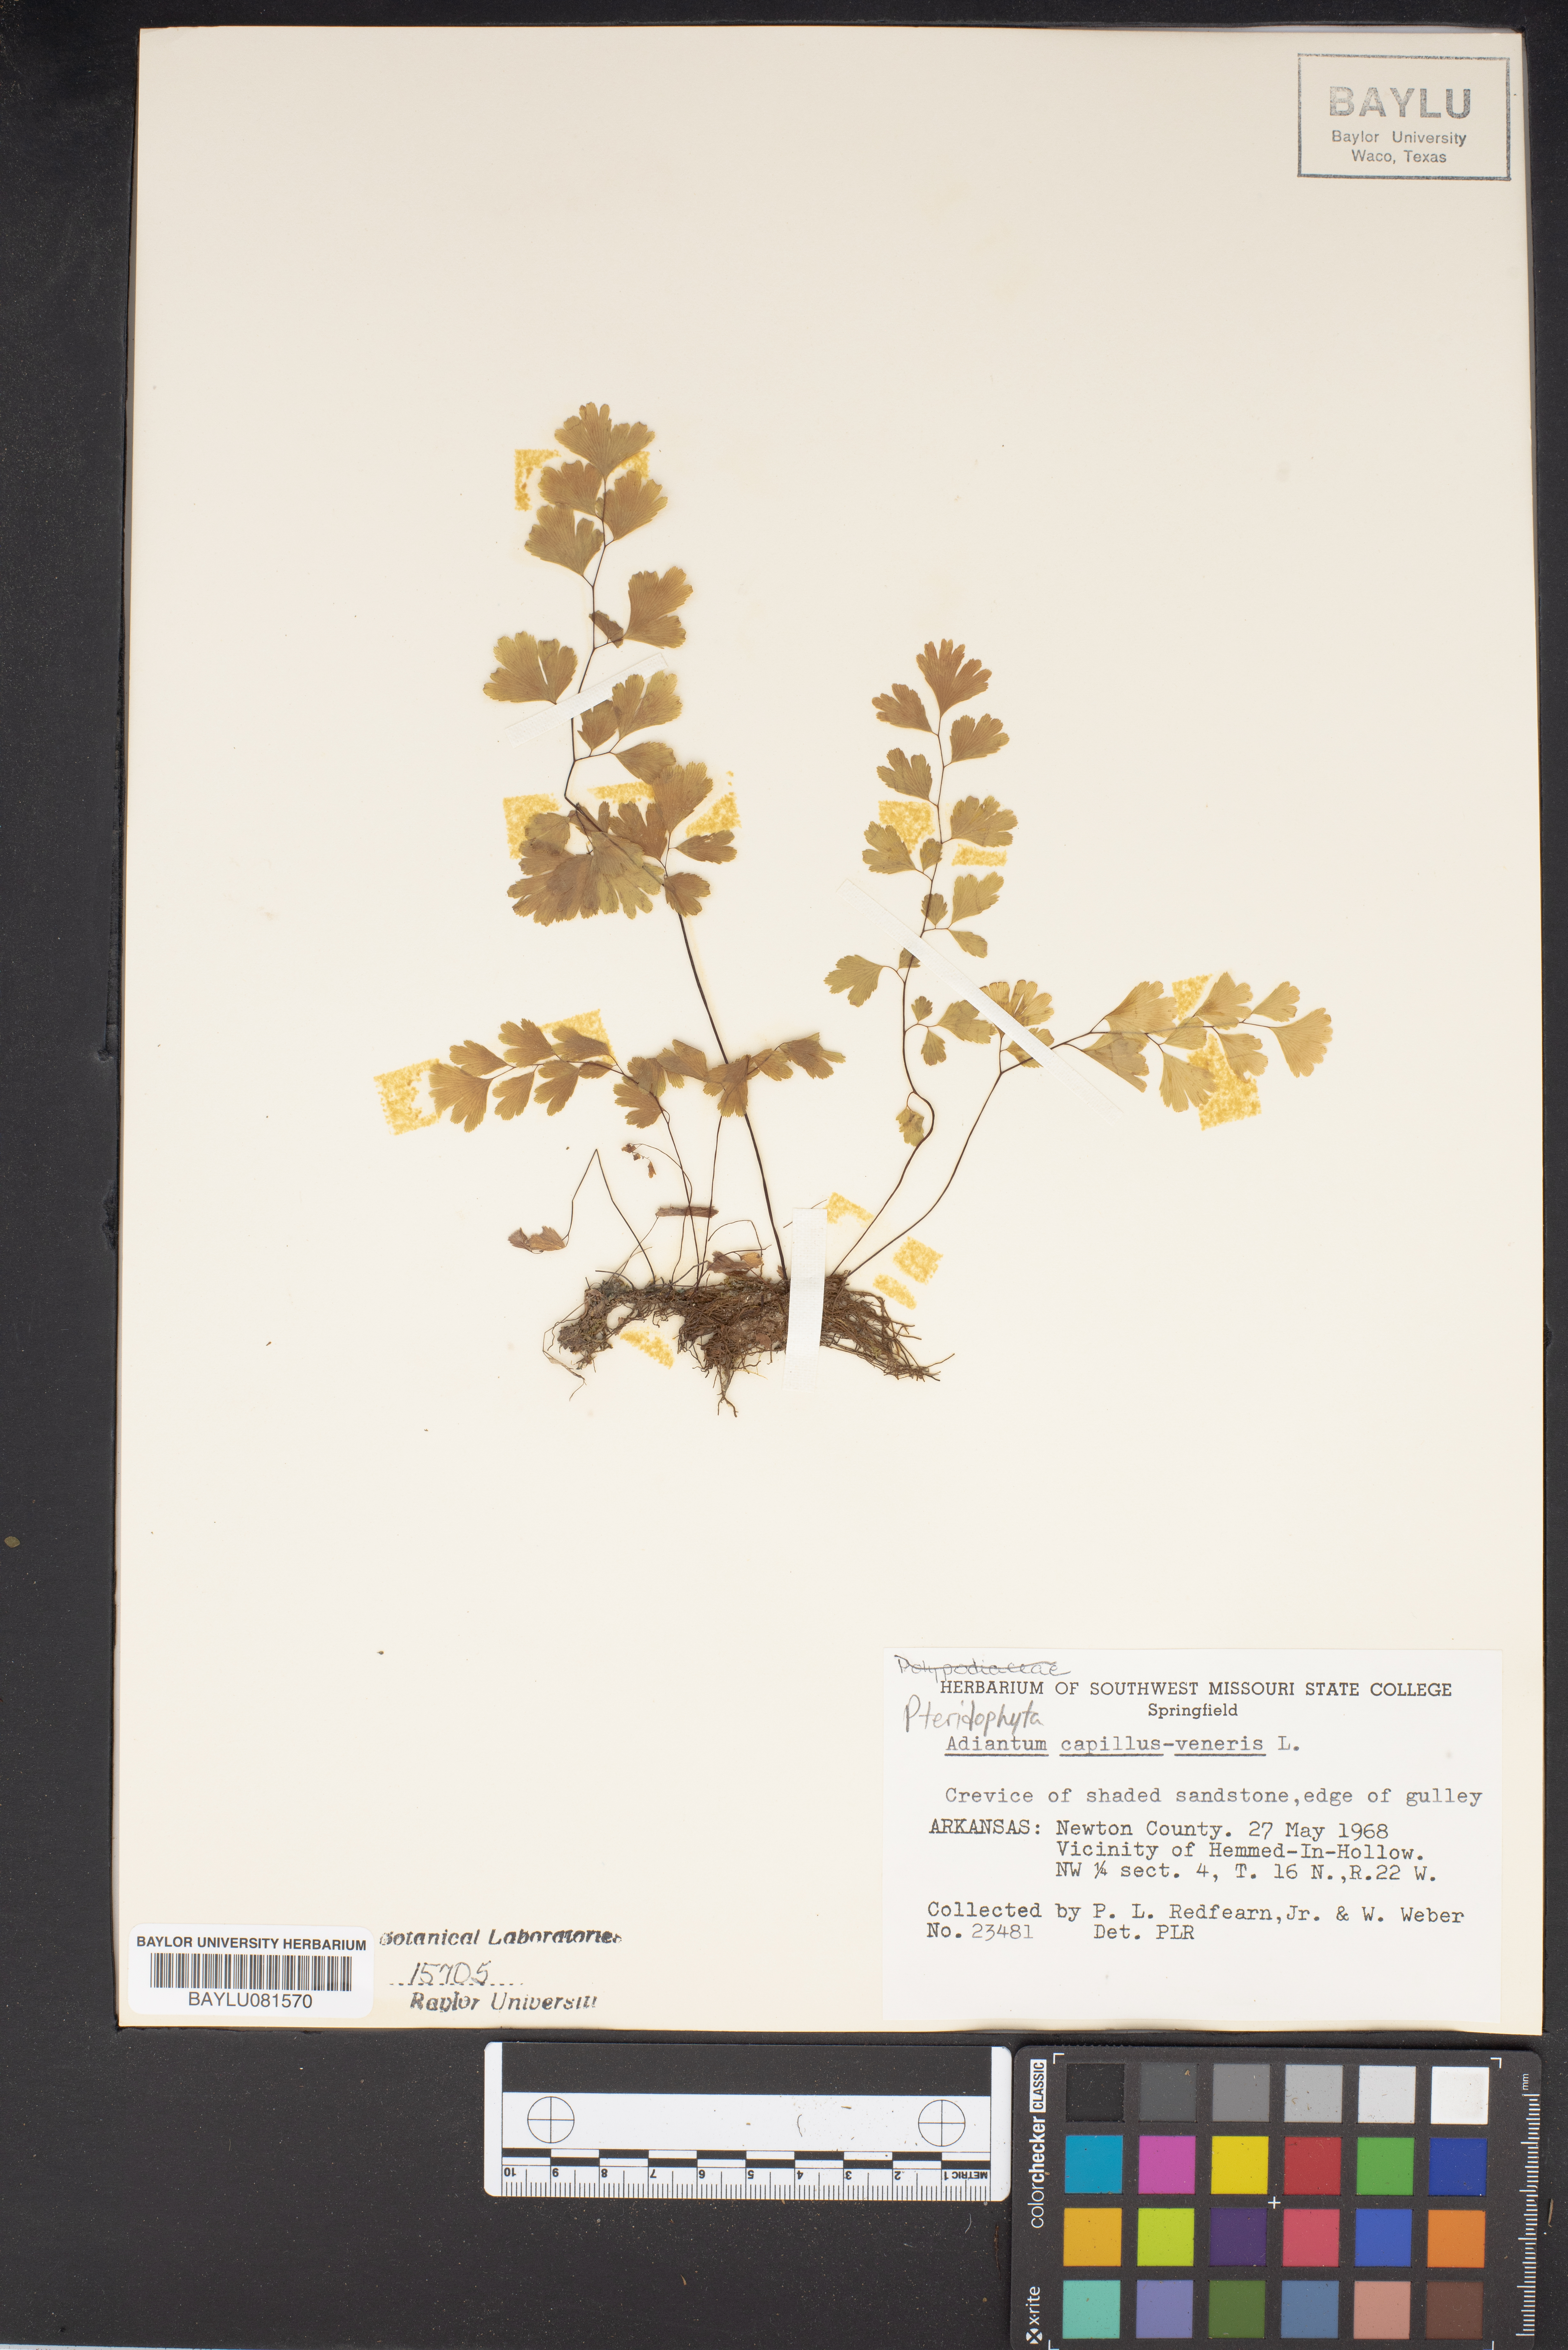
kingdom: Plantae
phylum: Tracheophyta
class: Polypodiopsida
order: Polypodiales
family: Pteridaceae
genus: Adiantum
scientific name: Adiantum capillus-veneris
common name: Maidenhair fern
